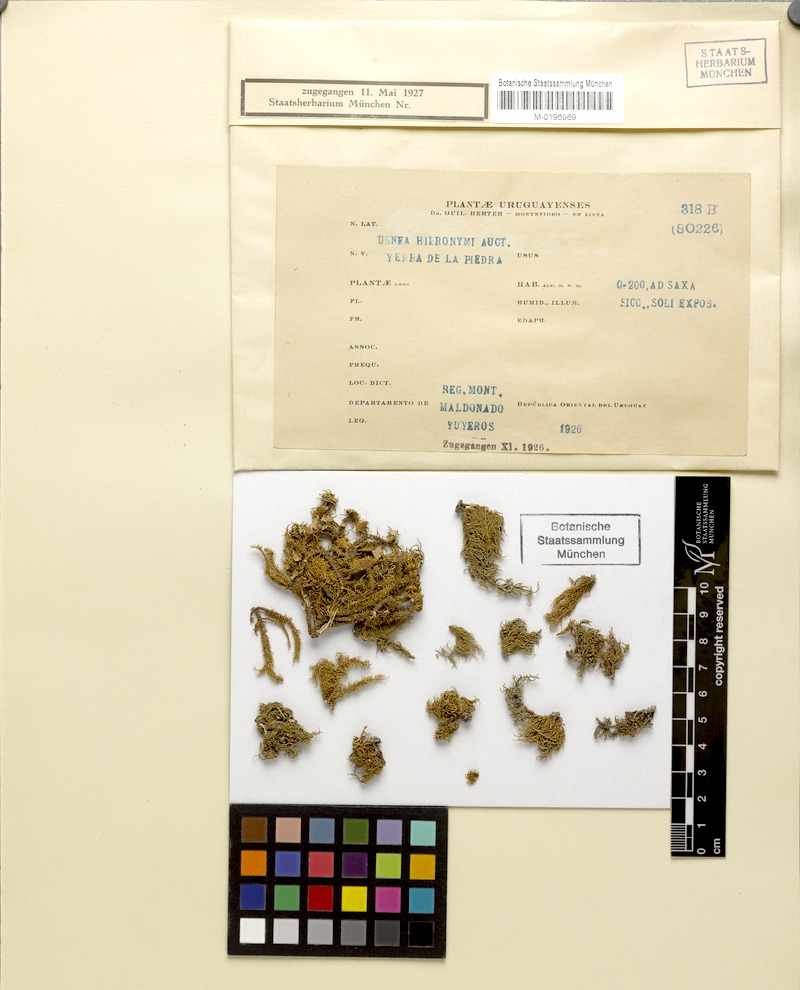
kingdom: Fungi
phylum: Ascomycota
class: Lecanoromycetes
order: Lecanorales
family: Parmeliaceae
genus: Usnea
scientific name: Usnea
